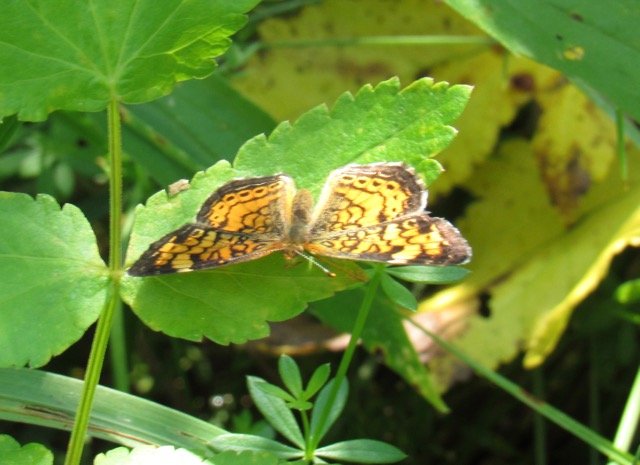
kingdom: Animalia
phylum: Arthropoda
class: Insecta
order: Lepidoptera
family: Nymphalidae
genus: Phyciodes
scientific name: Phyciodes tharos
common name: Pearl Crescent
